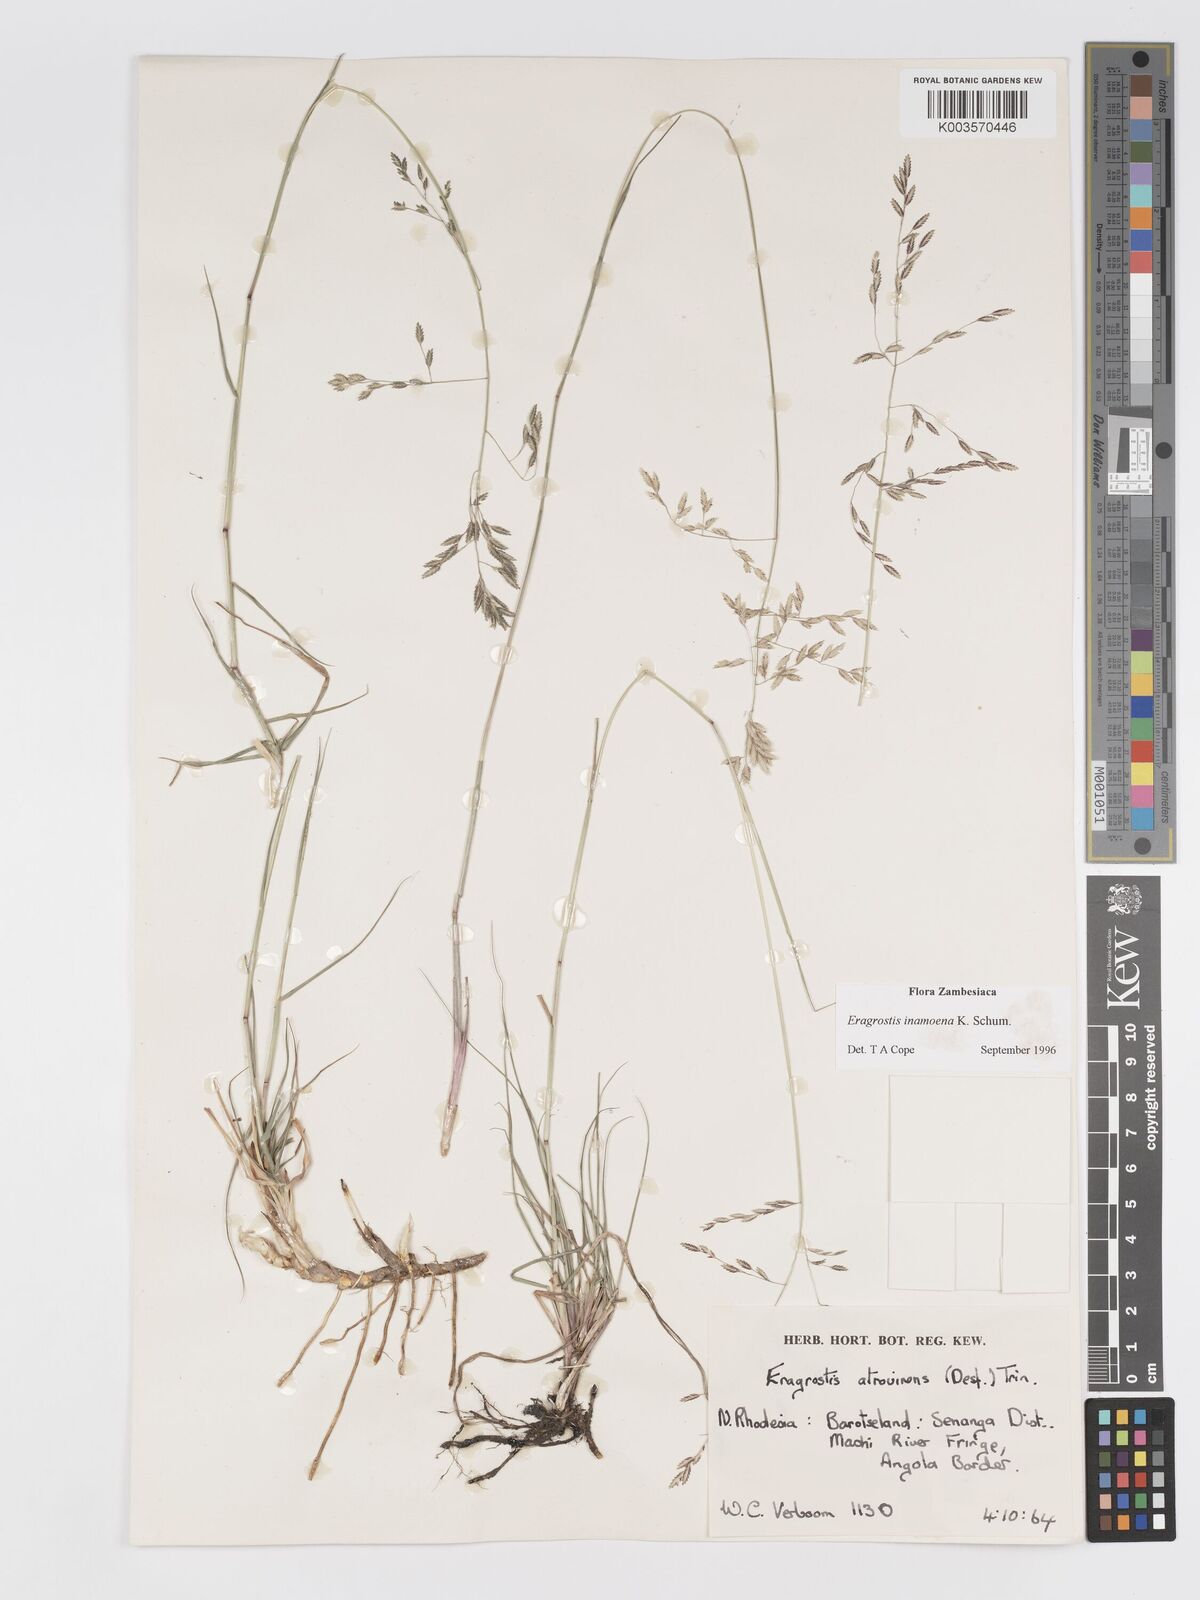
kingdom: Plantae
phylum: Tracheophyta
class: Liliopsida
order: Poales
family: Poaceae
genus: Eragrostis
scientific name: Eragrostis inamoena
